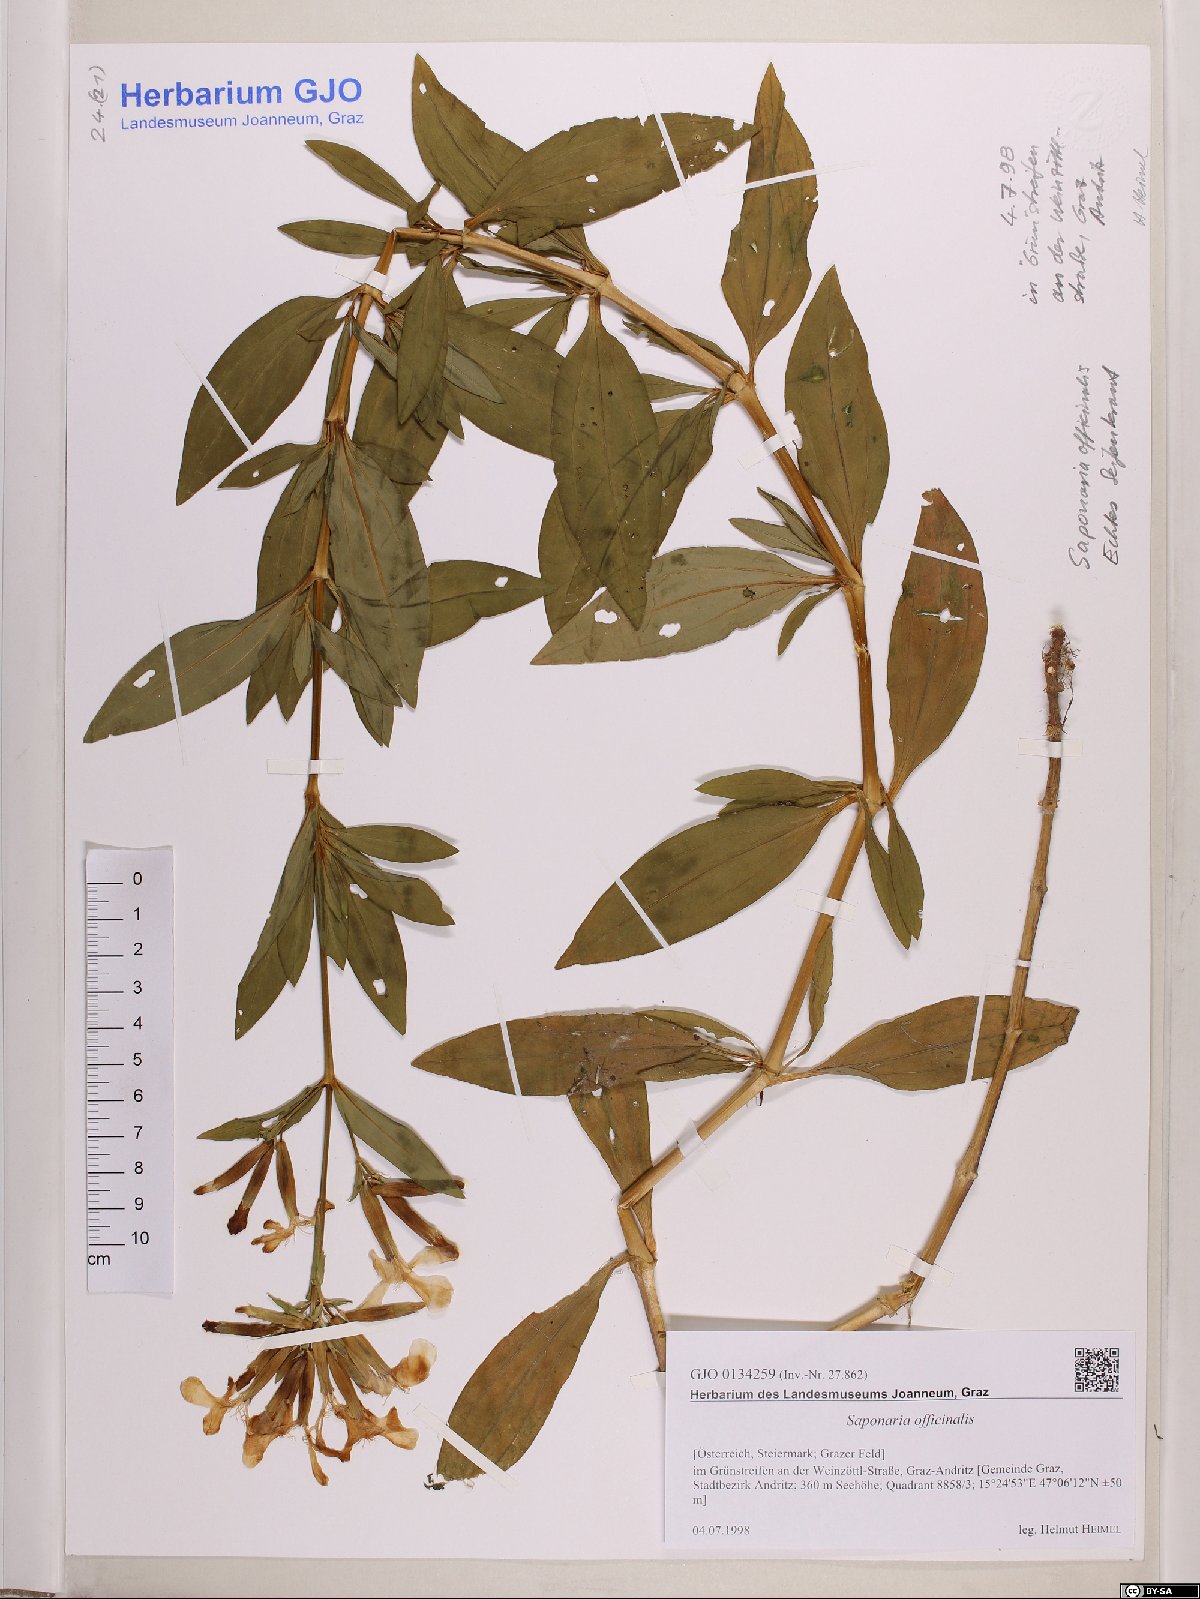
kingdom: Plantae
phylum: Tracheophyta
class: Magnoliopsida
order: Caryophyllales
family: Caryophyllaceae
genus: Saponaria
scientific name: Saponaria officinalis
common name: Soapwort
